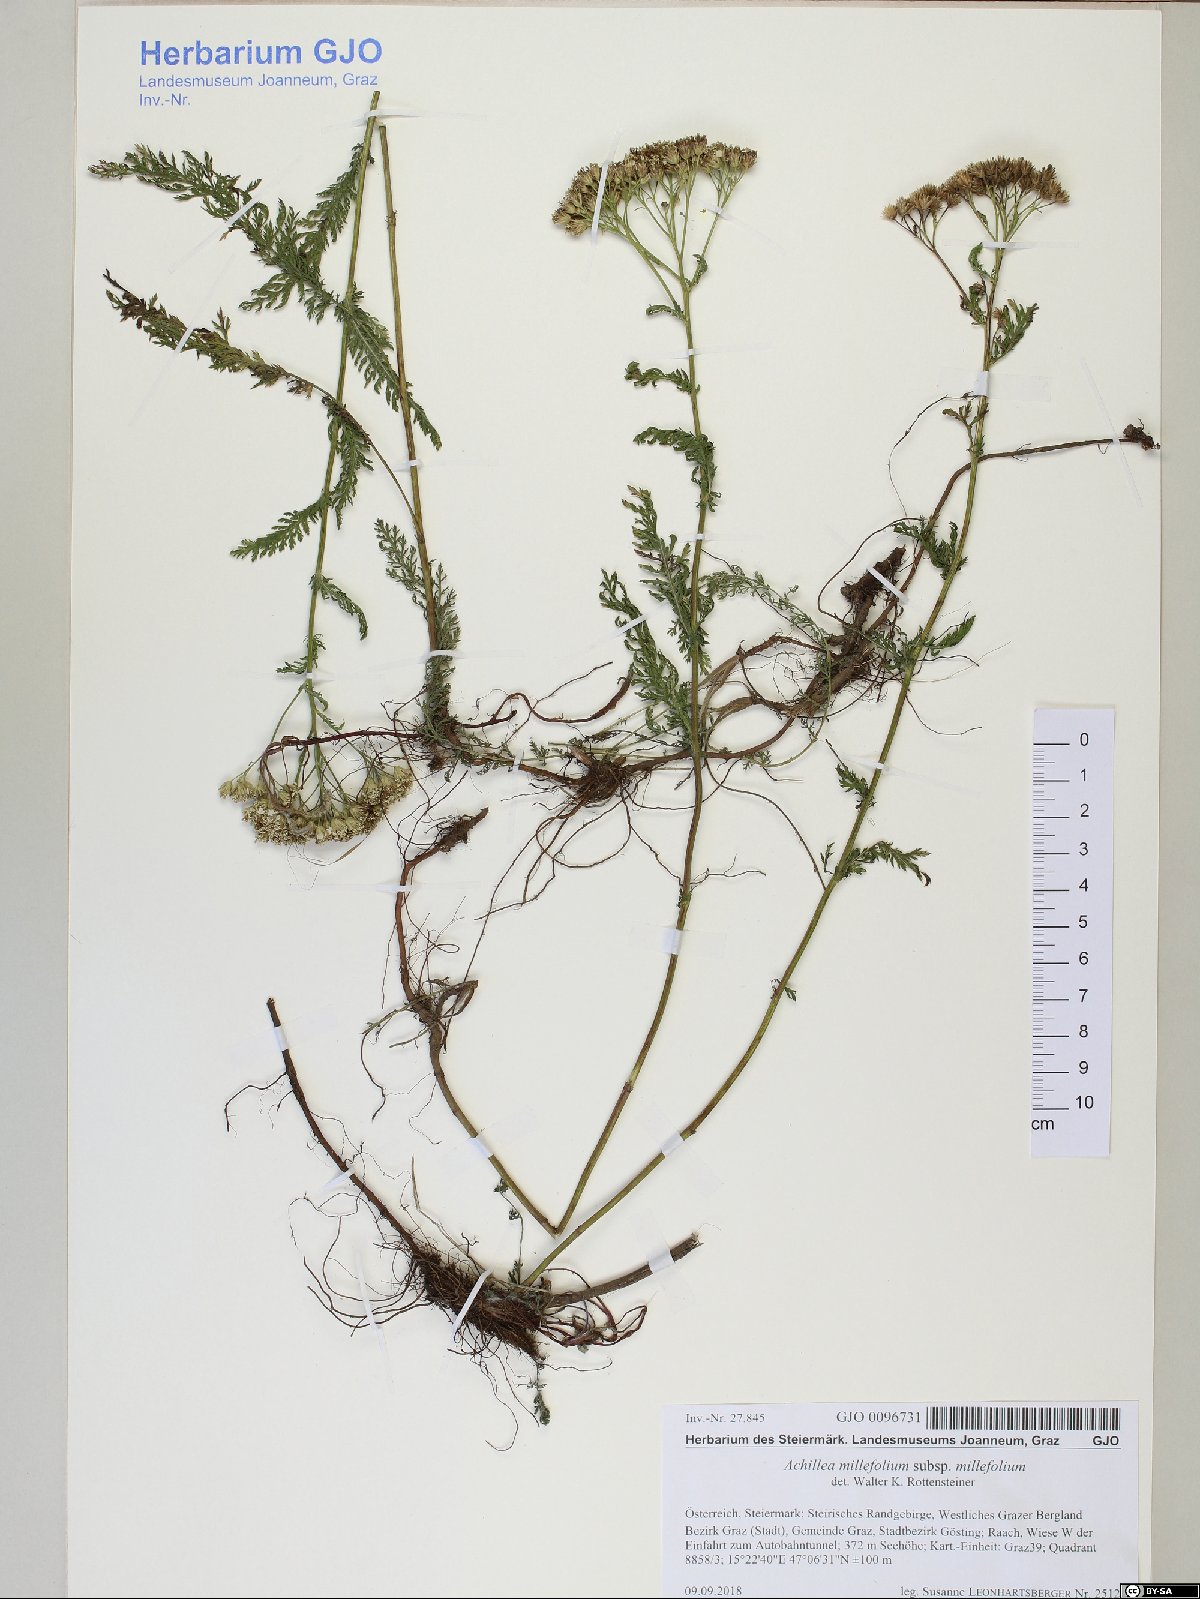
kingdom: Plantae
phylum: Tracheophyta
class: Magnoliopsida
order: Asterales
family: Asteraceae
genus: Achillea
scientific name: Achillea millefolium
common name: Yarrow
